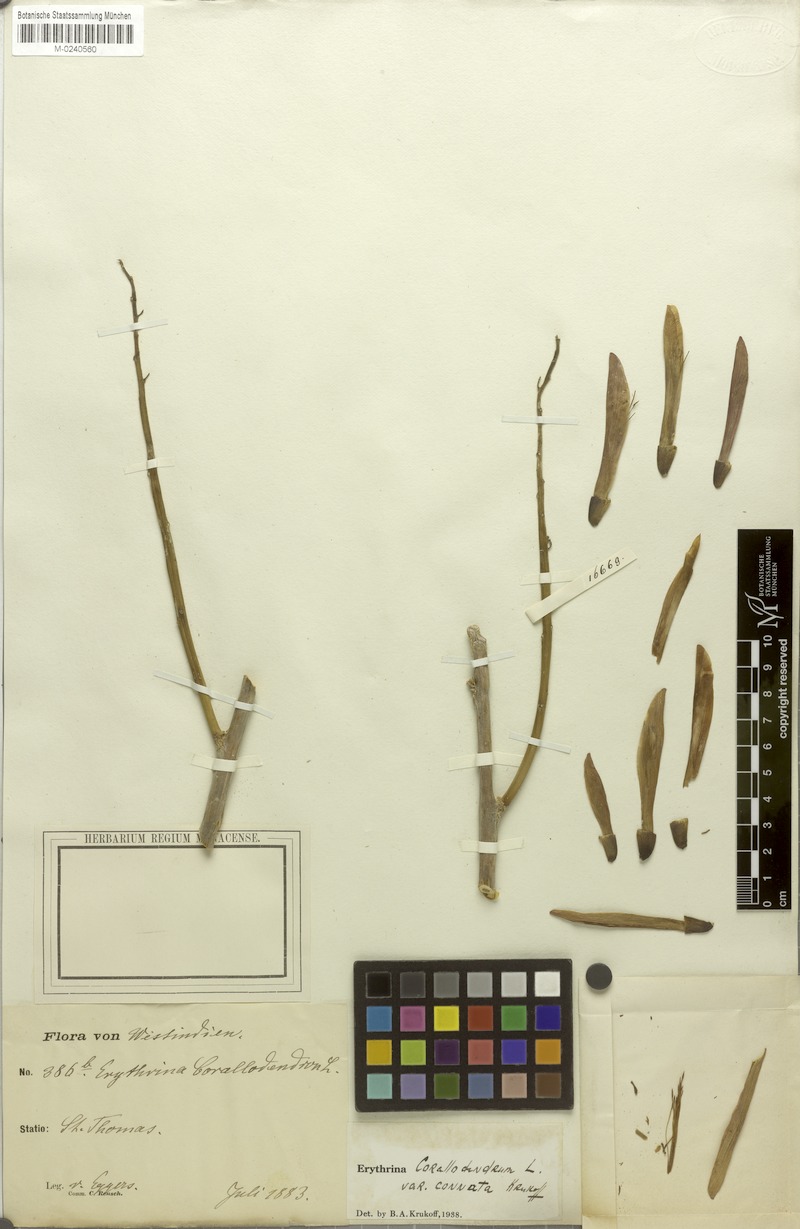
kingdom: Plantae
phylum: Tracheophyta
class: Magnoliopsida
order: Fabales
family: Fabaceae
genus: Erythrina
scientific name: Erythrina corallodendron
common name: Coraltree
